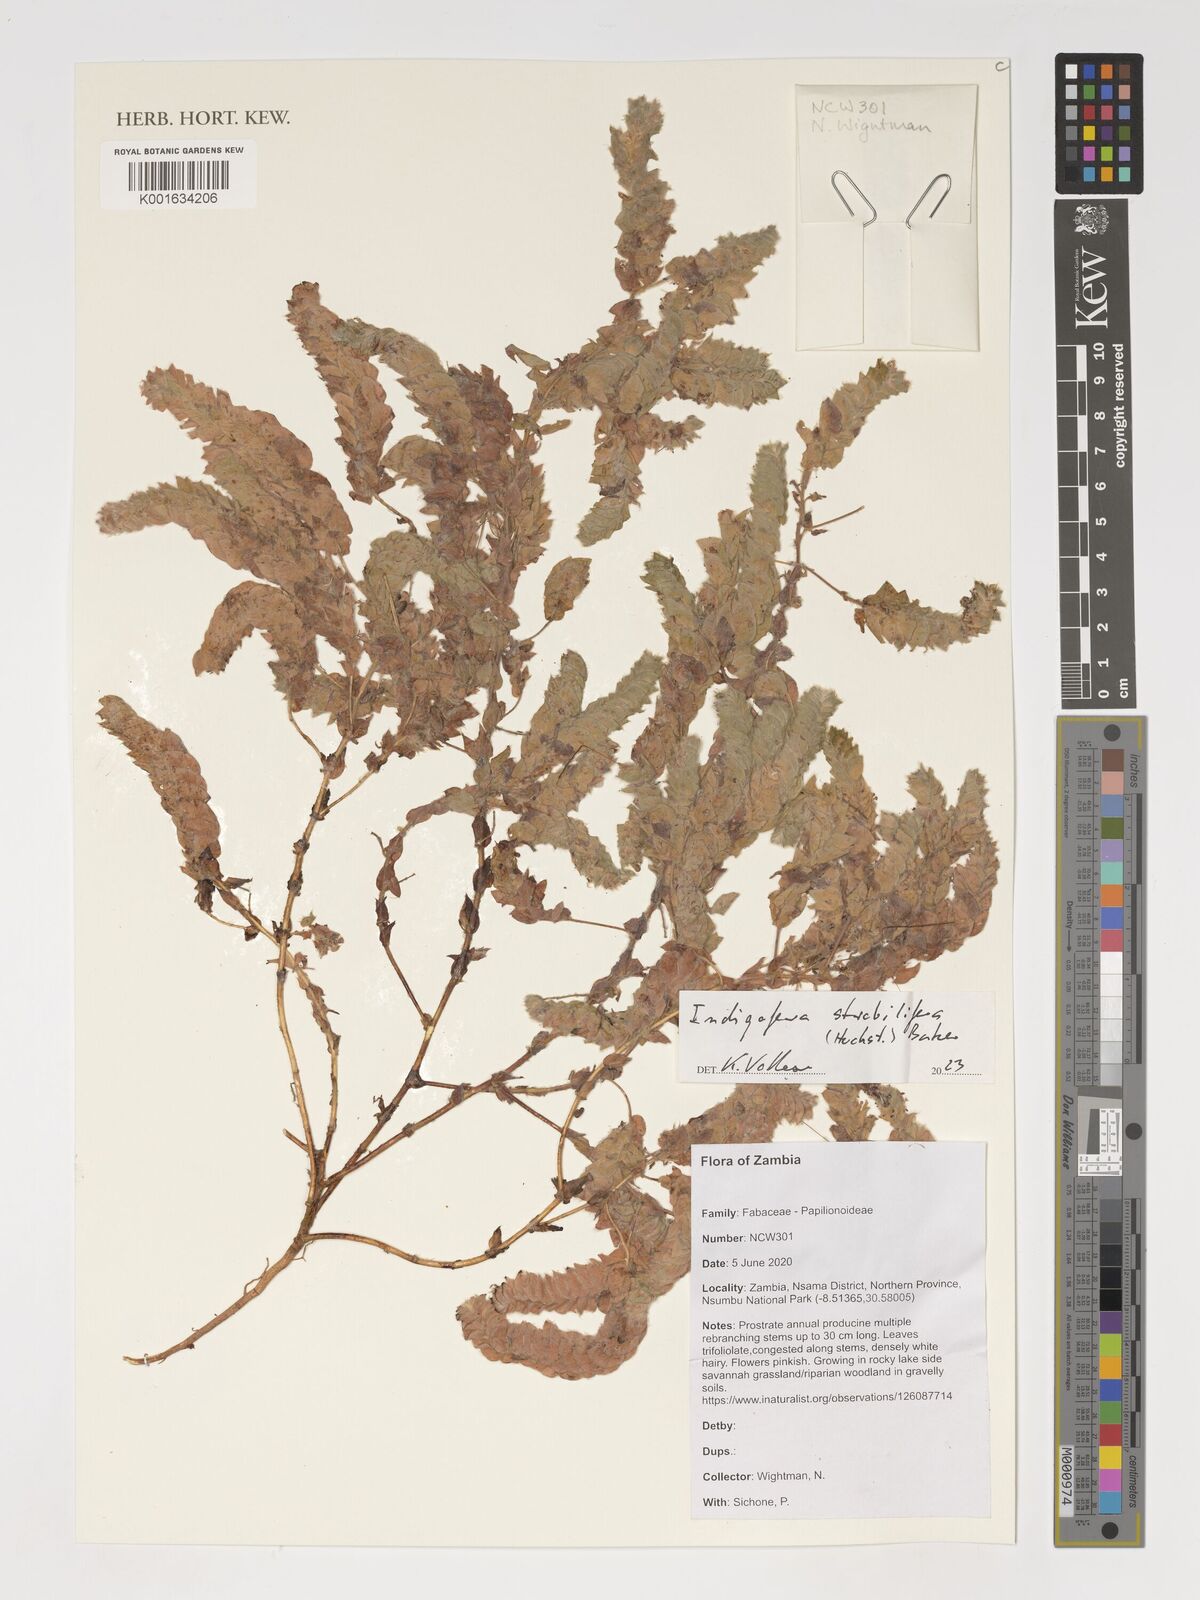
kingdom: Plantae
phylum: Tracheophyta
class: Magnoliopsida
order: Fabales
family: Fabaceae
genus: Indigofera
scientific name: Indigofera strobilifera
